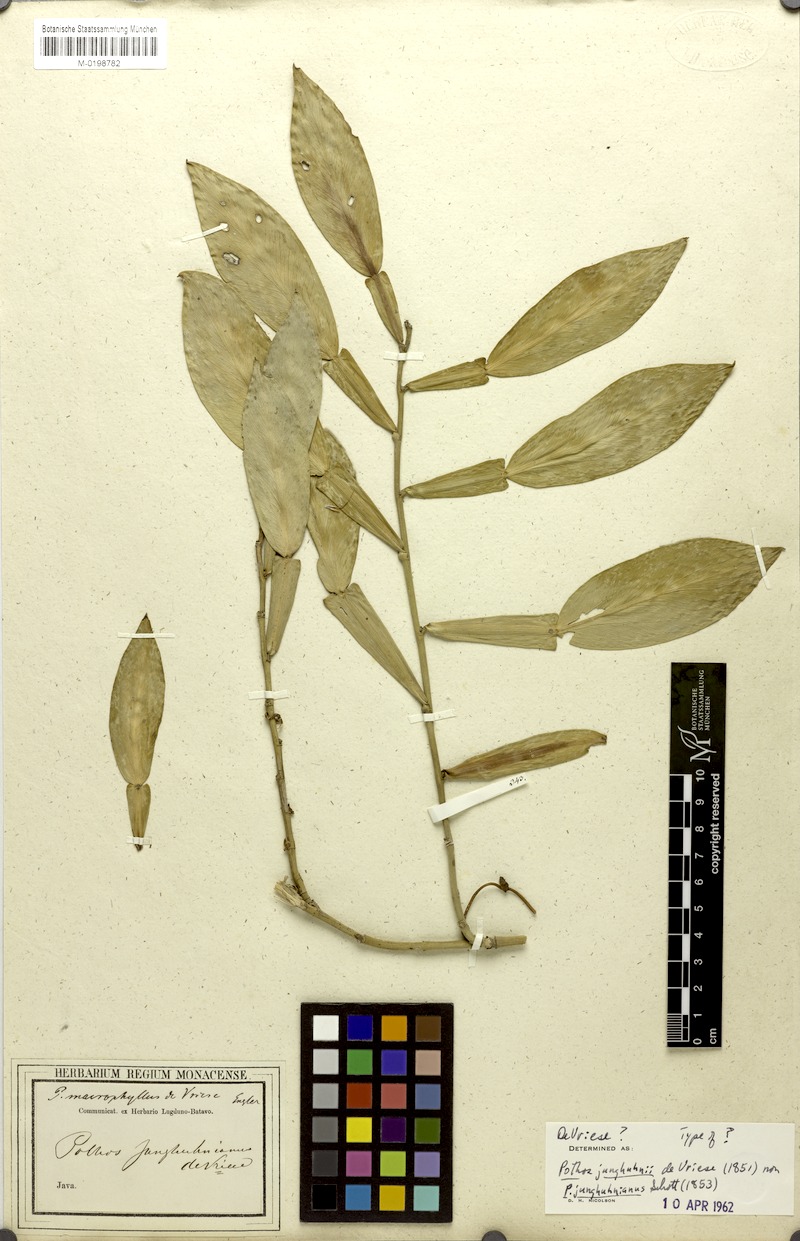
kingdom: Plantae
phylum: Tracheophyta
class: Liliopsida
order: Alismatales
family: Araceae
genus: Pothos
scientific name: Pothos junghuhnii
